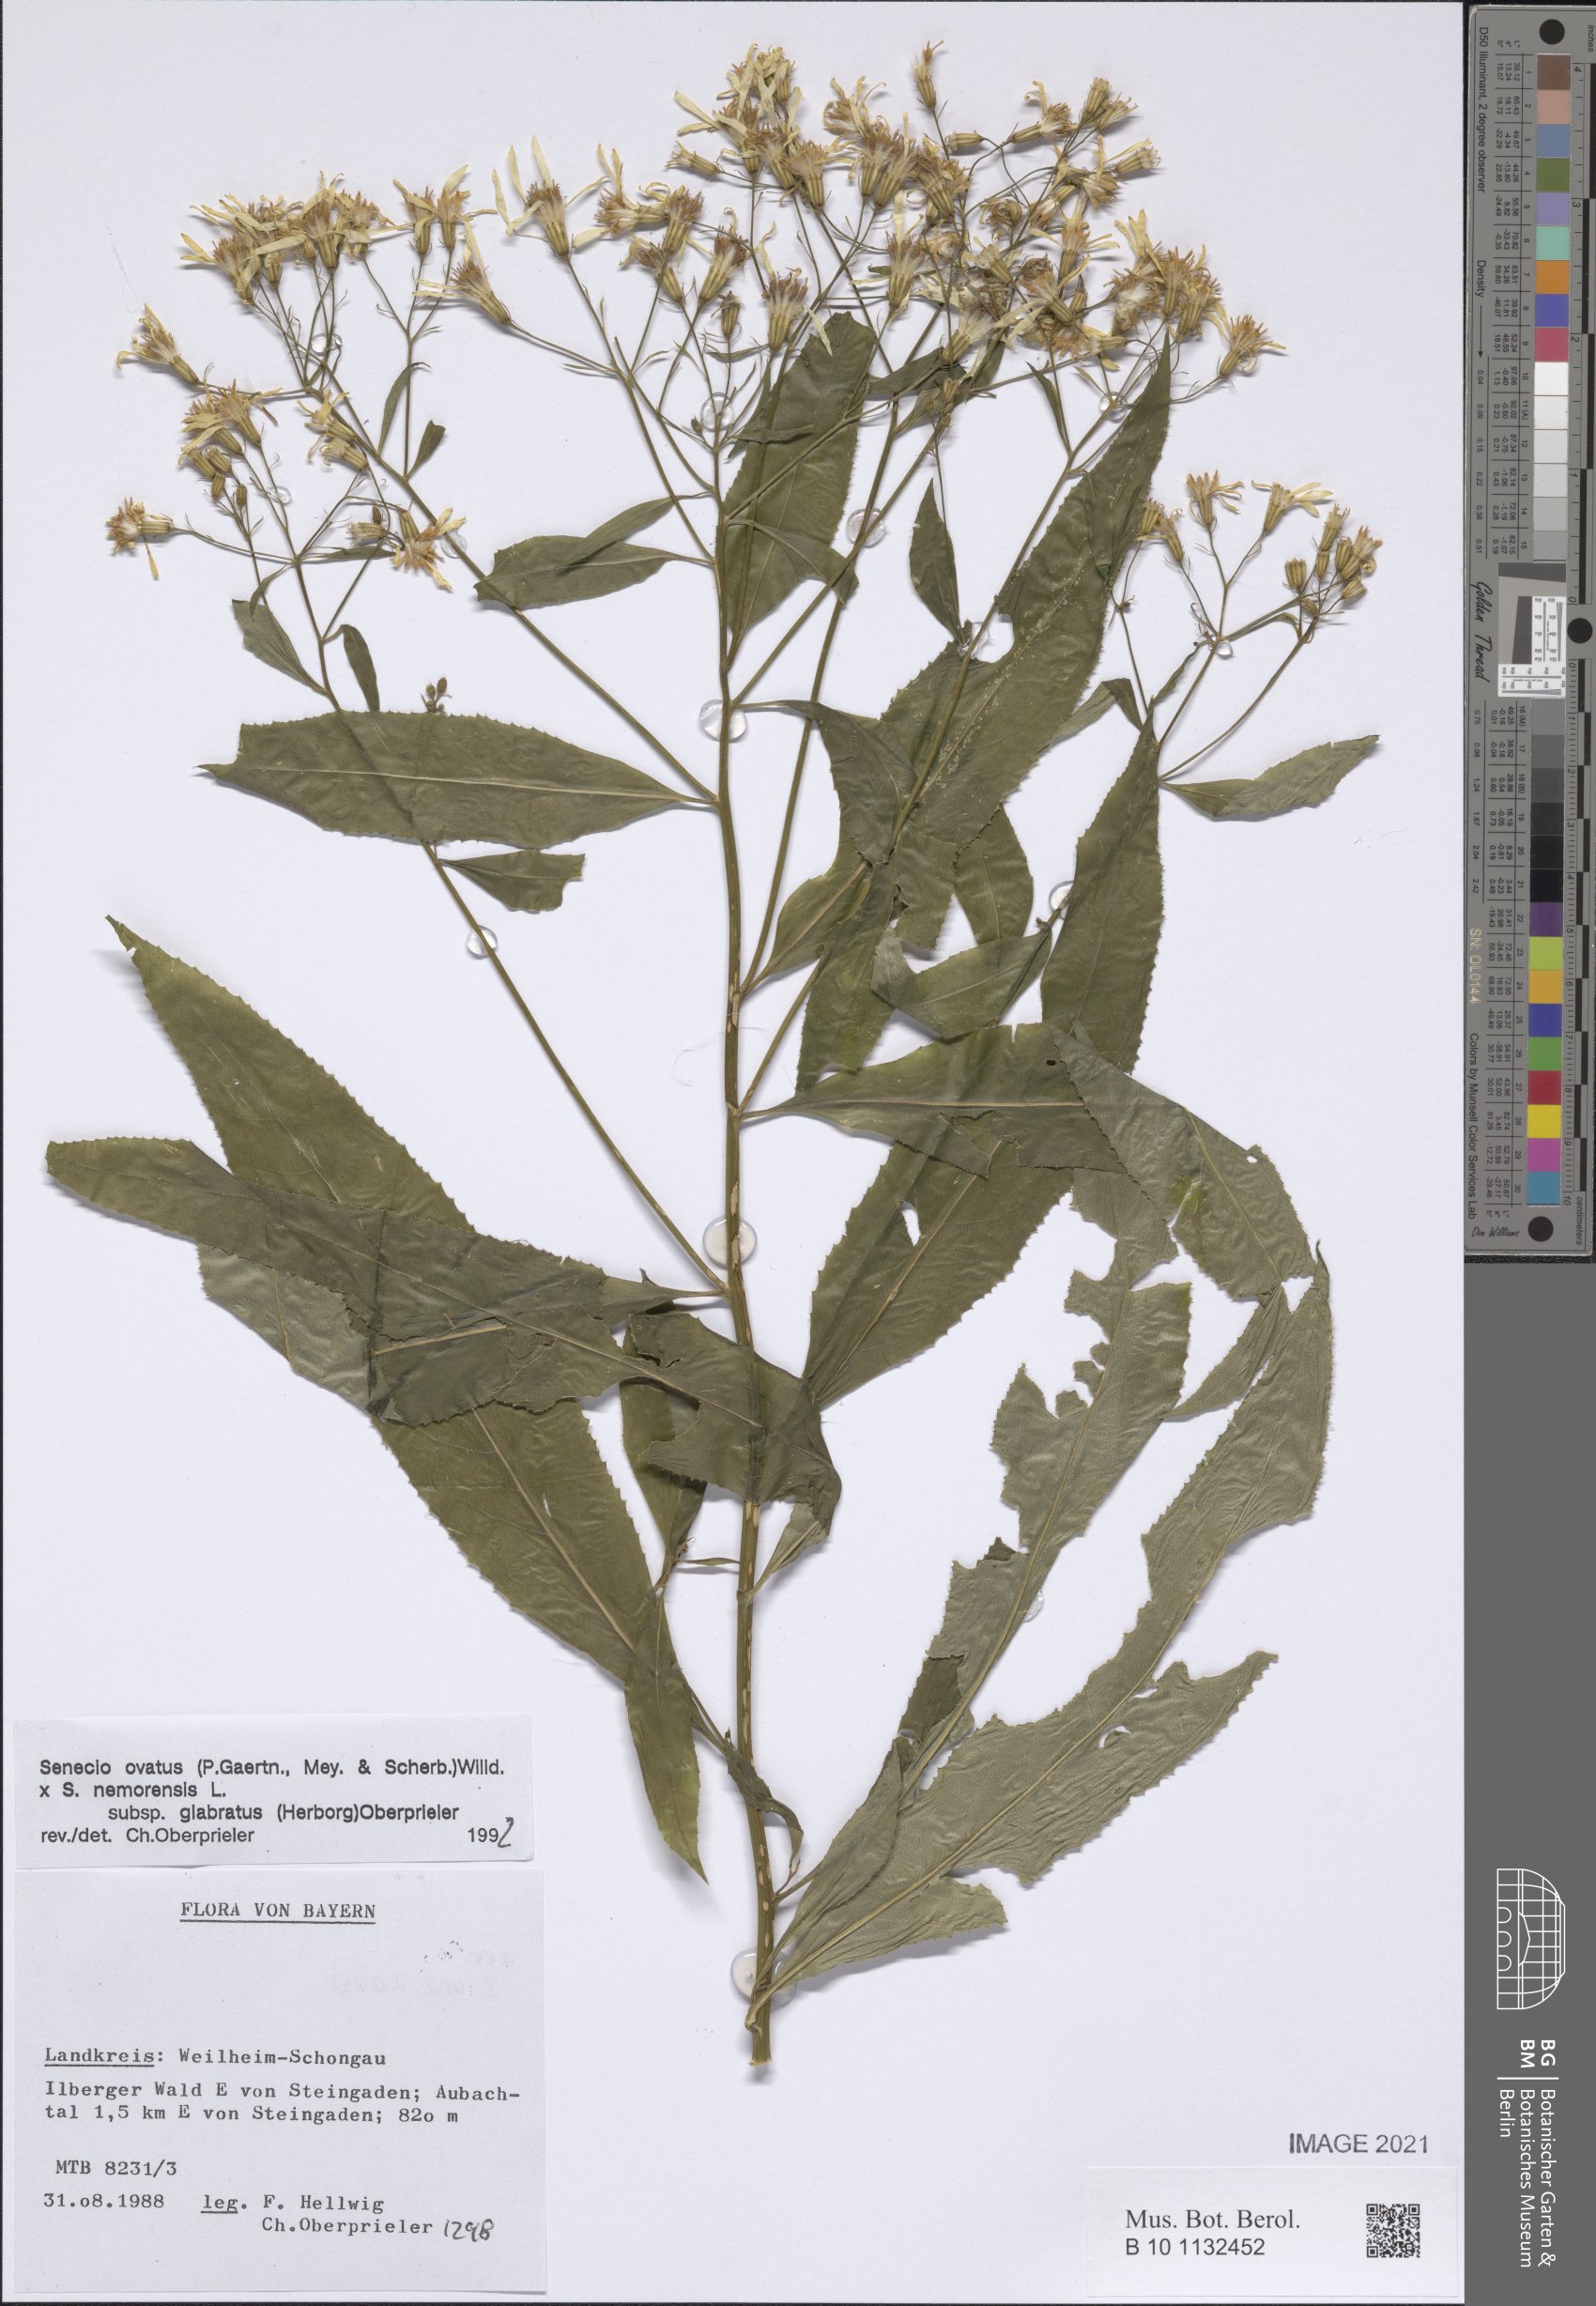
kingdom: Plantae
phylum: Tracheophyta
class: Magnoliopsida
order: Asterales
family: Asteraceae
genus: Senecio
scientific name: Senecio ovatus
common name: Wood ragwort
